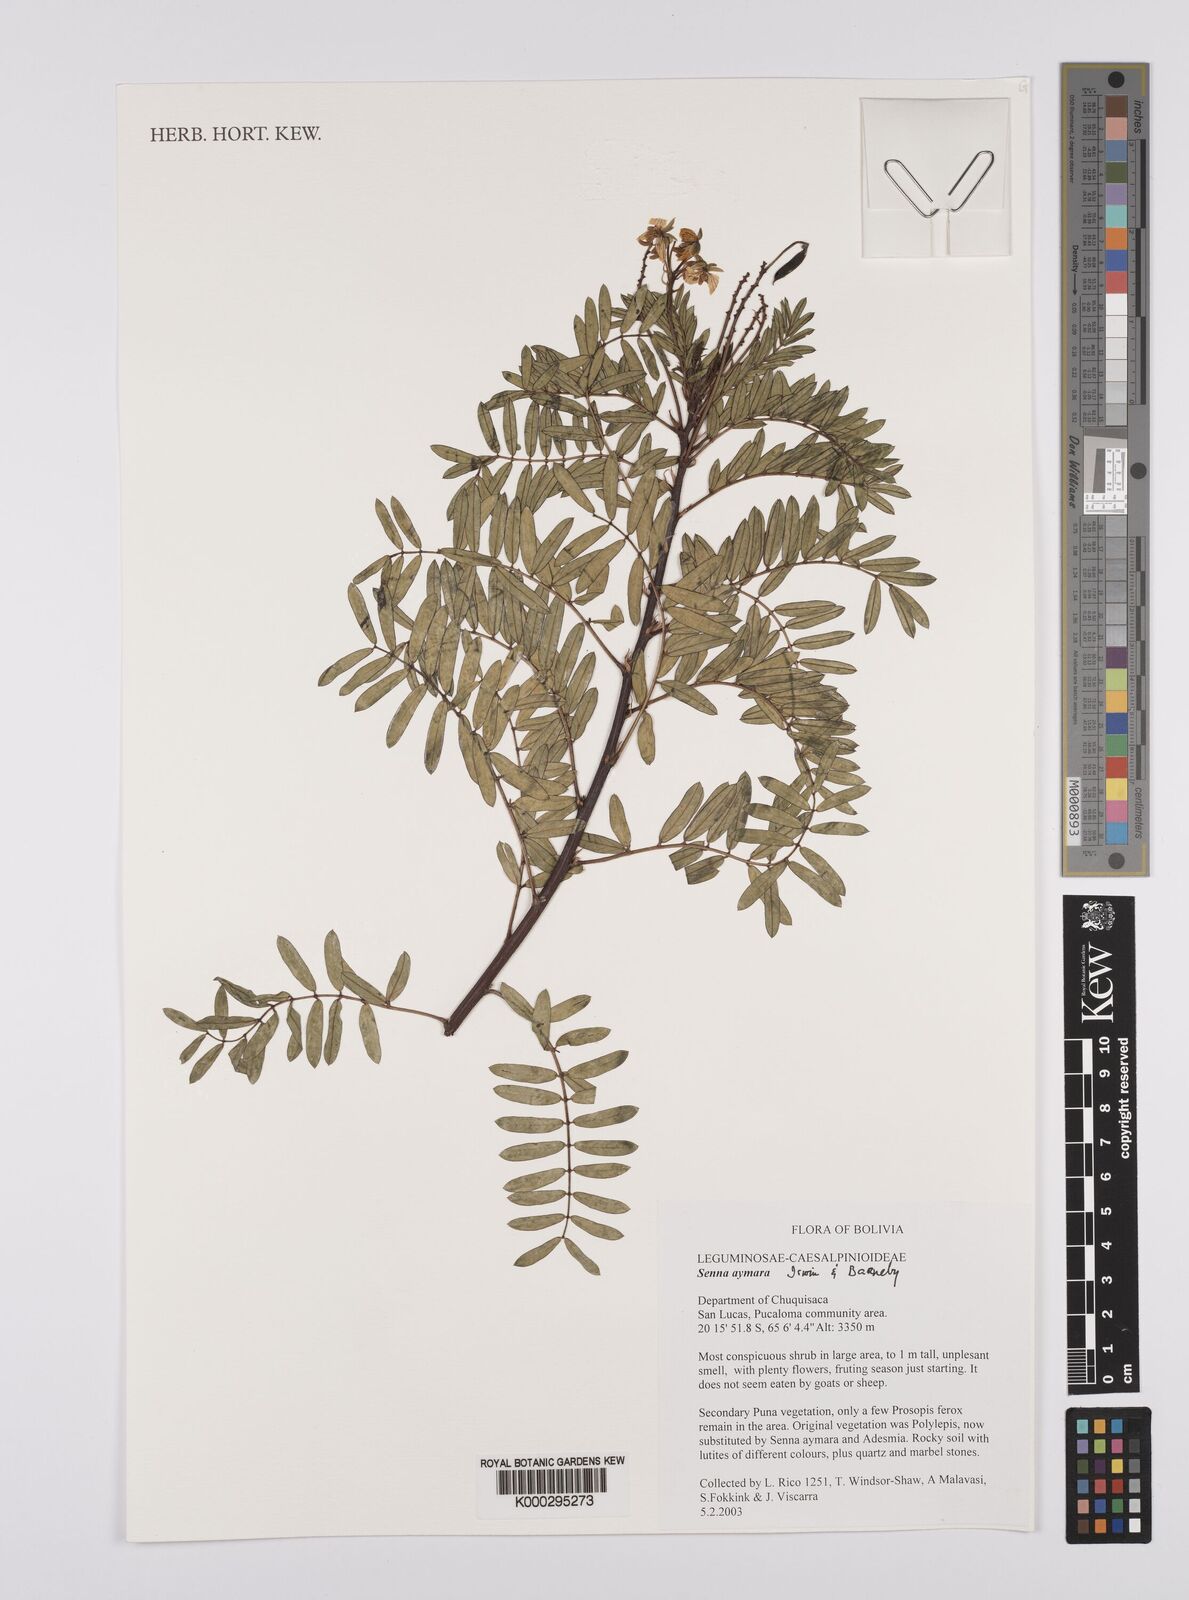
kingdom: Plantae
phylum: Tracheophyta
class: Magnoliopsida
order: Fabales
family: Fabaceae
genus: Senna
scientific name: Senna aymara
